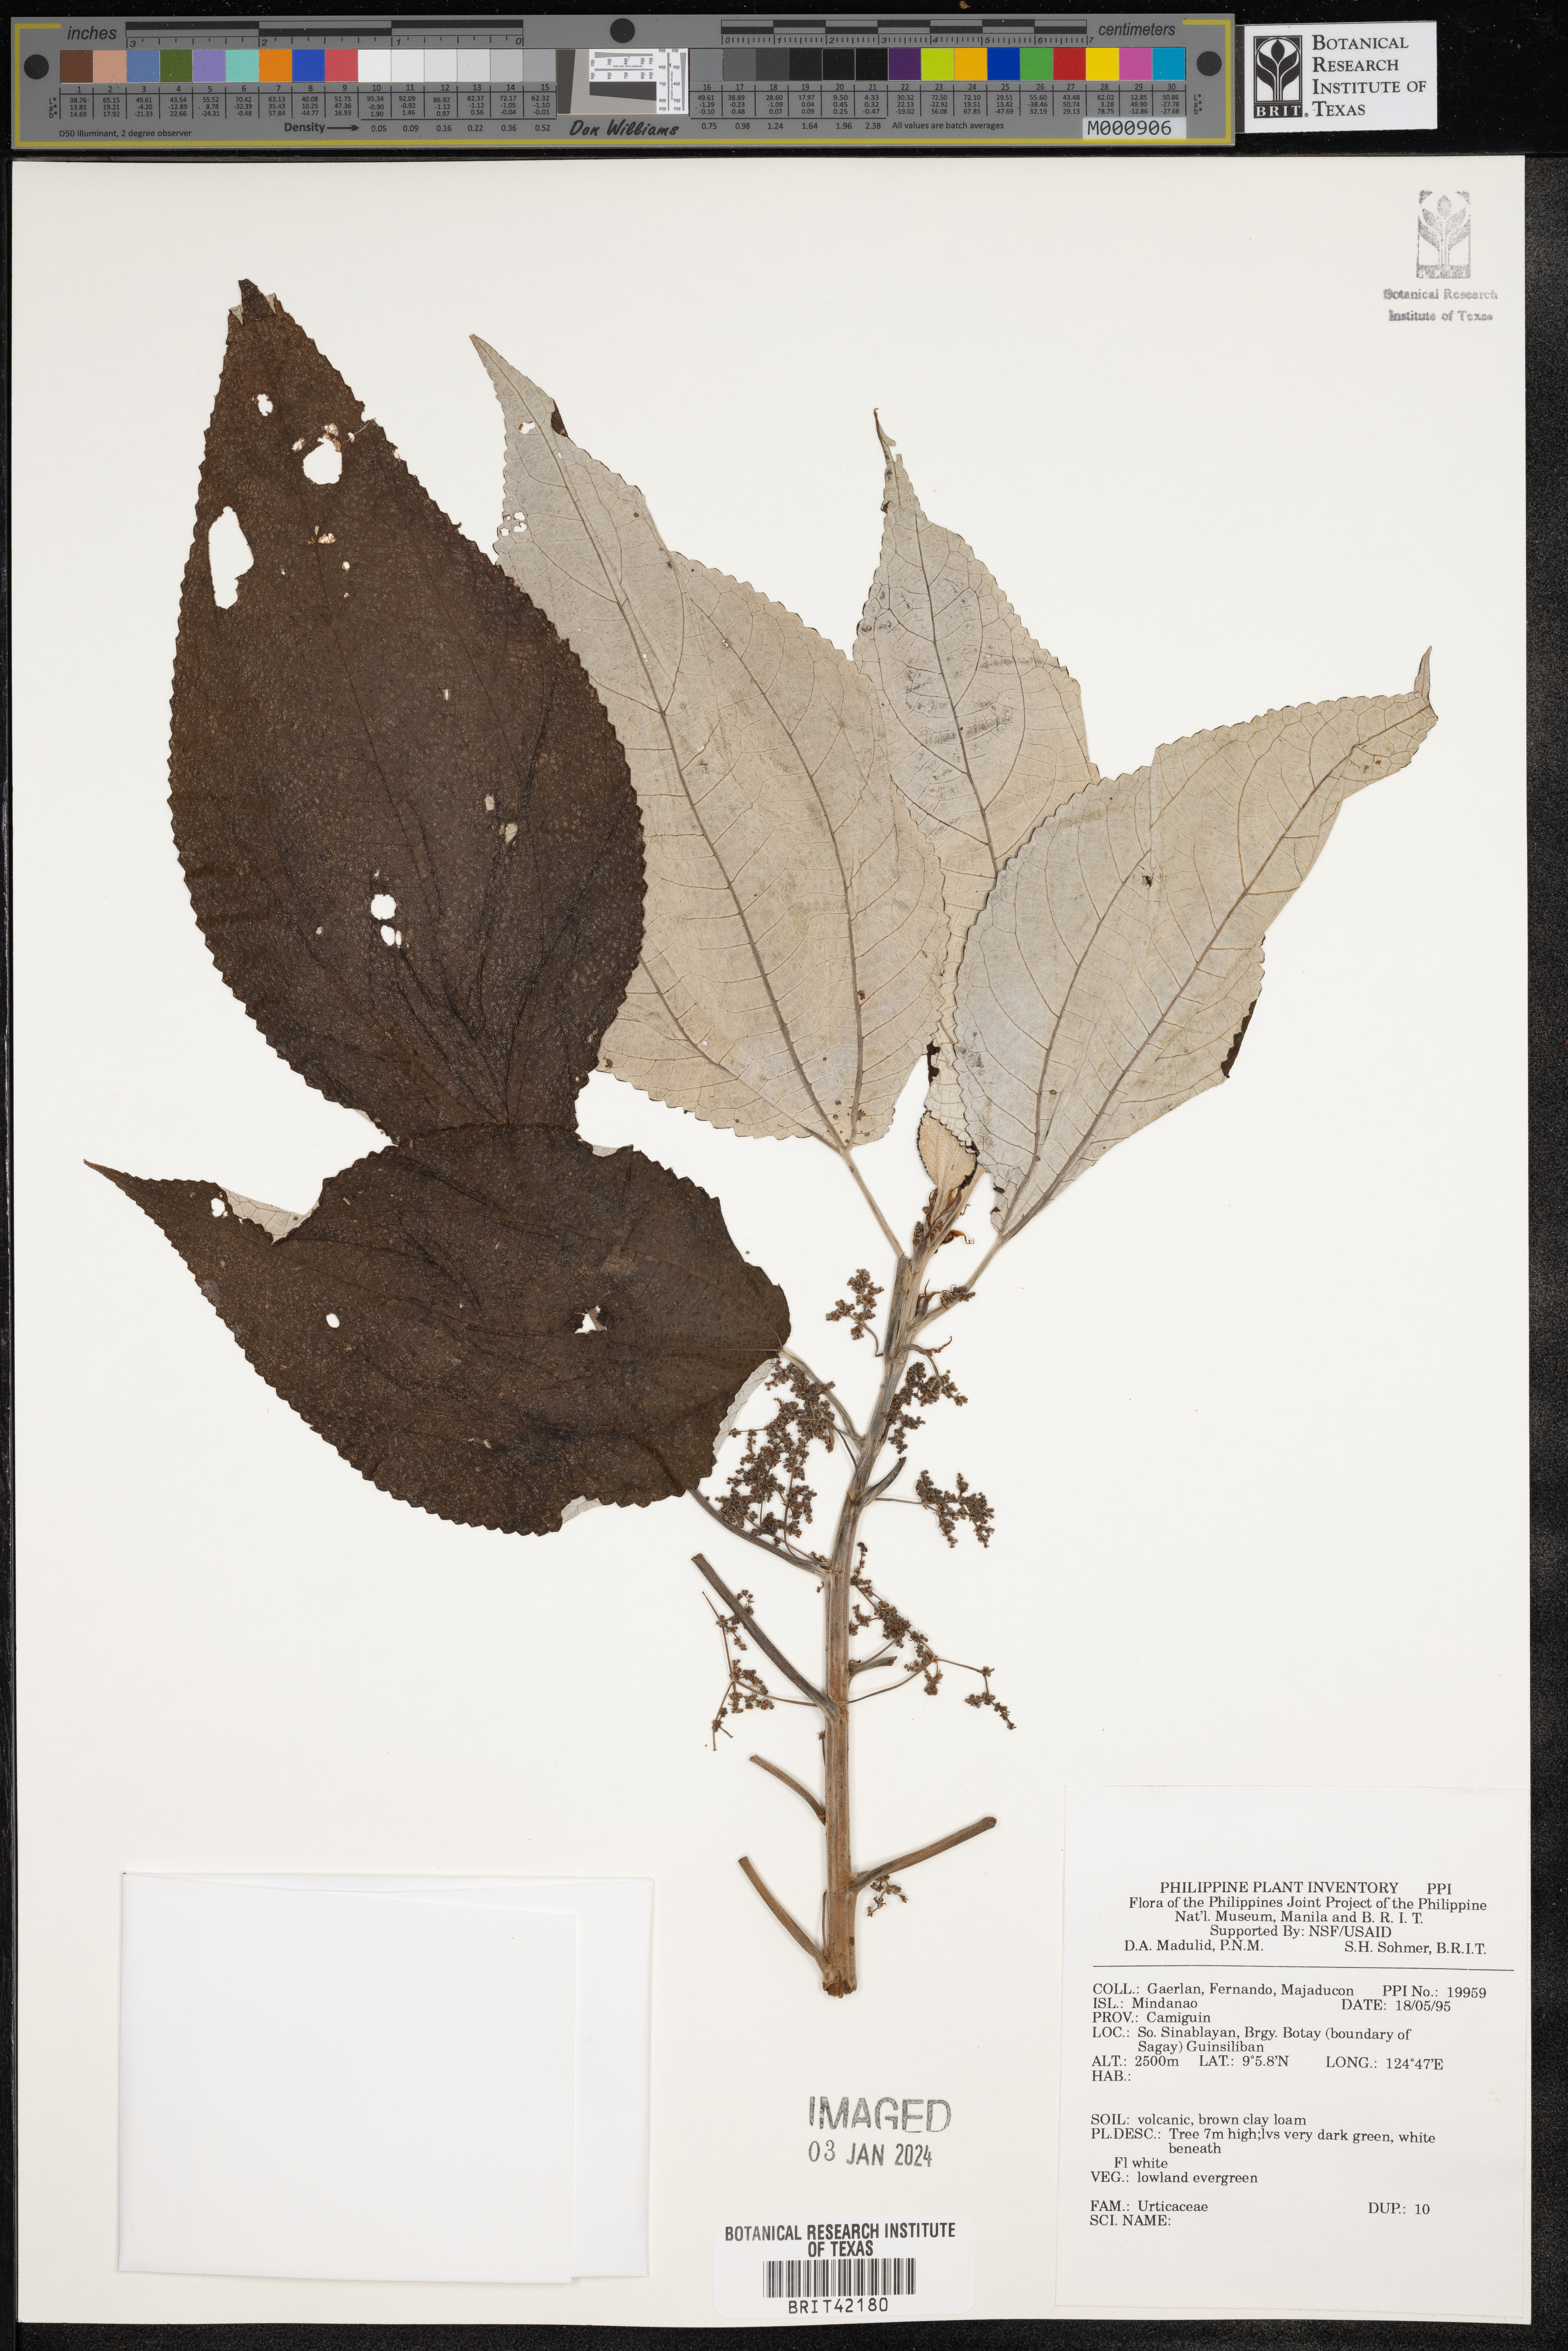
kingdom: Plantae
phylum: Tracheophyta
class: Magnoliopsida
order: Rosales
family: Urticaceae
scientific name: Urticaceae
